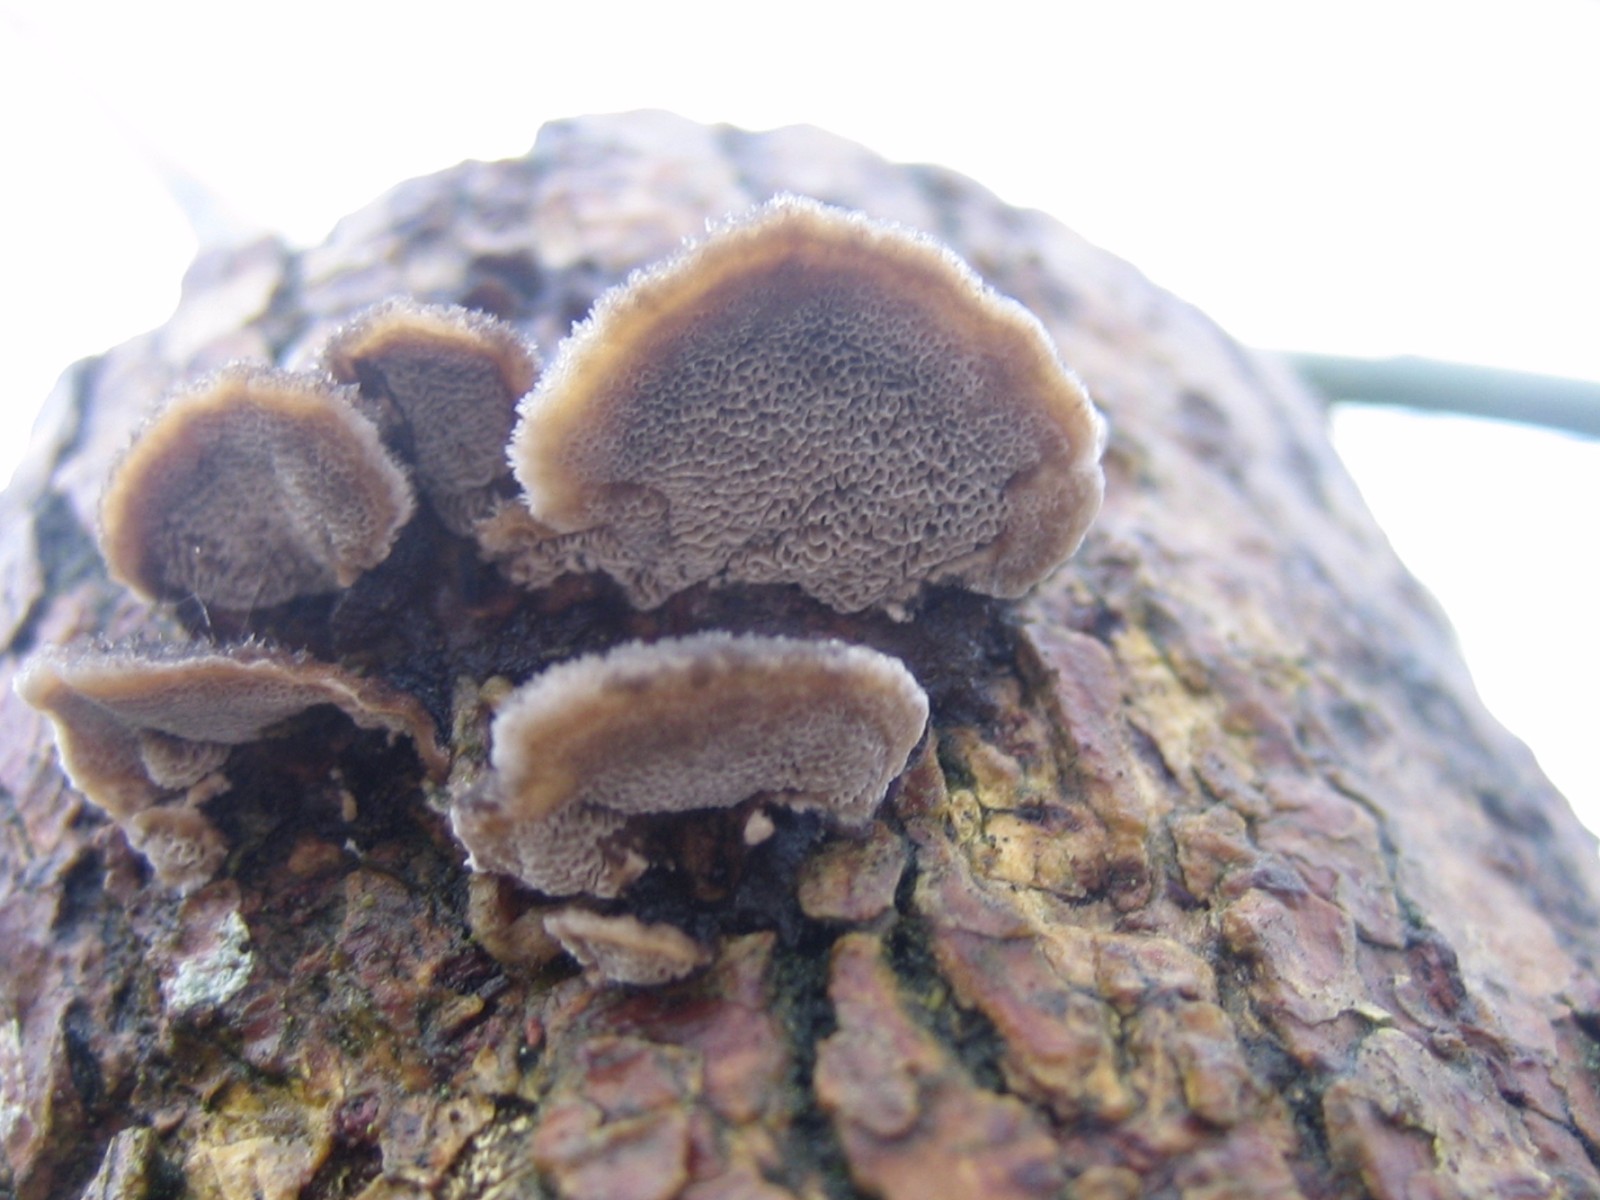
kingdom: Fungi
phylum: Basidiomycota
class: Agaricomycetes
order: Polyporales
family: Phanerochaetaceae
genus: Bjerkandera
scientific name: Bjerkandera adusta
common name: sveden sodporesvamp
